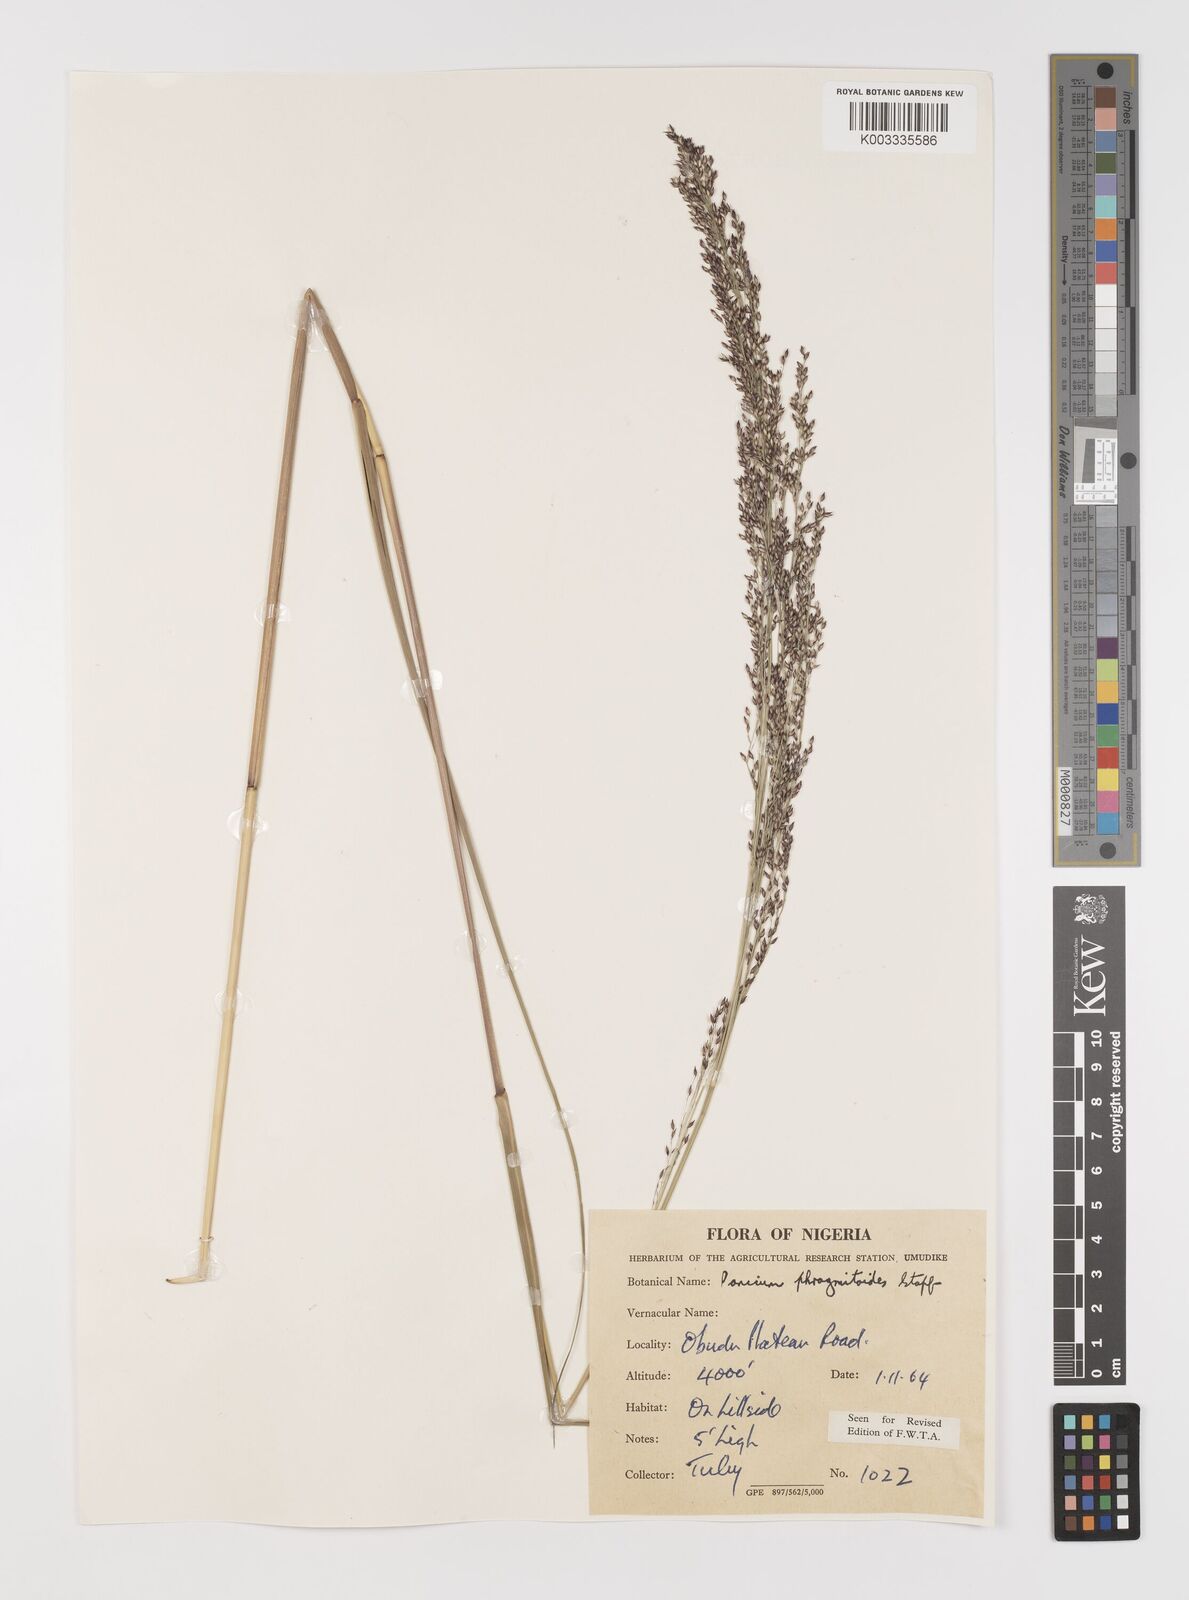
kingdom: Plantae
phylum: Tracheophyta
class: Liliopsida
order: Poales
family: Poaceae
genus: Panicum
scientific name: Panicum phragmitoides
